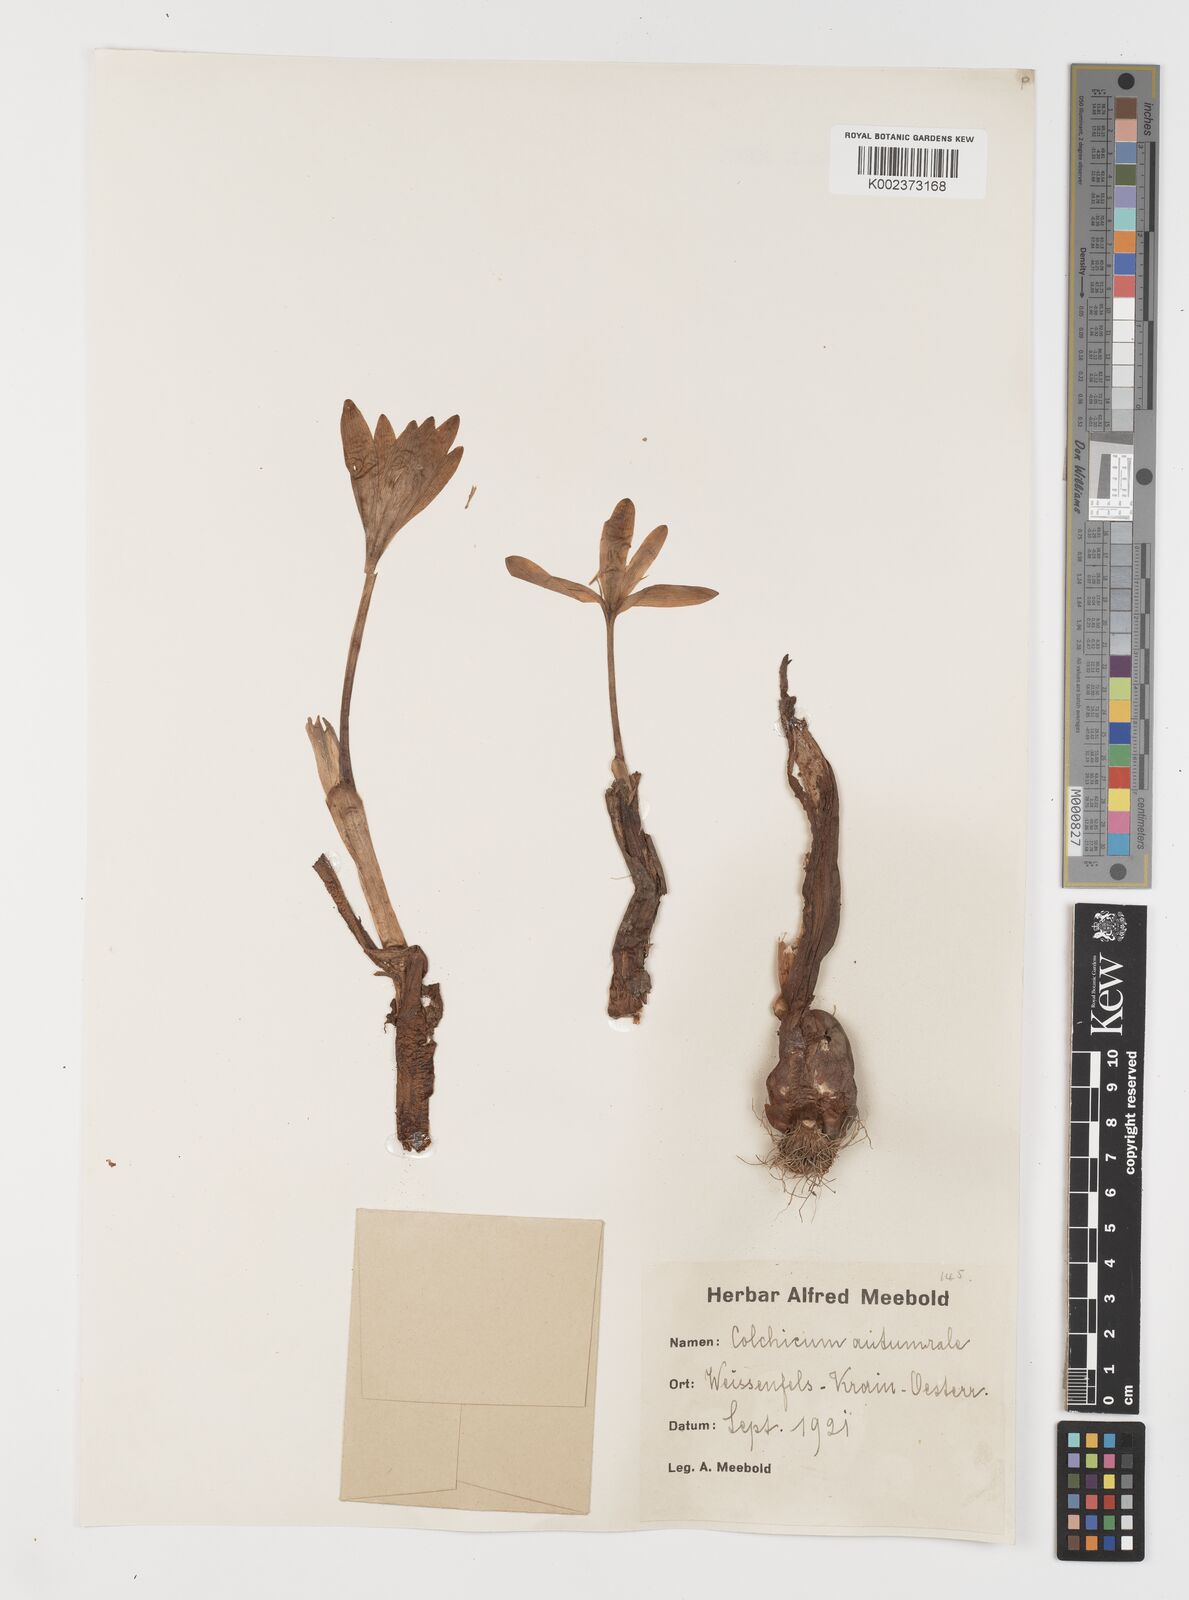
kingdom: Plantae
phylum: Tracheophyta
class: Liliopsida
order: Liliales
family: Colchicaceae
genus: Colchicum
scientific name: Colchicum autumnale
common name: Autumn crocus
